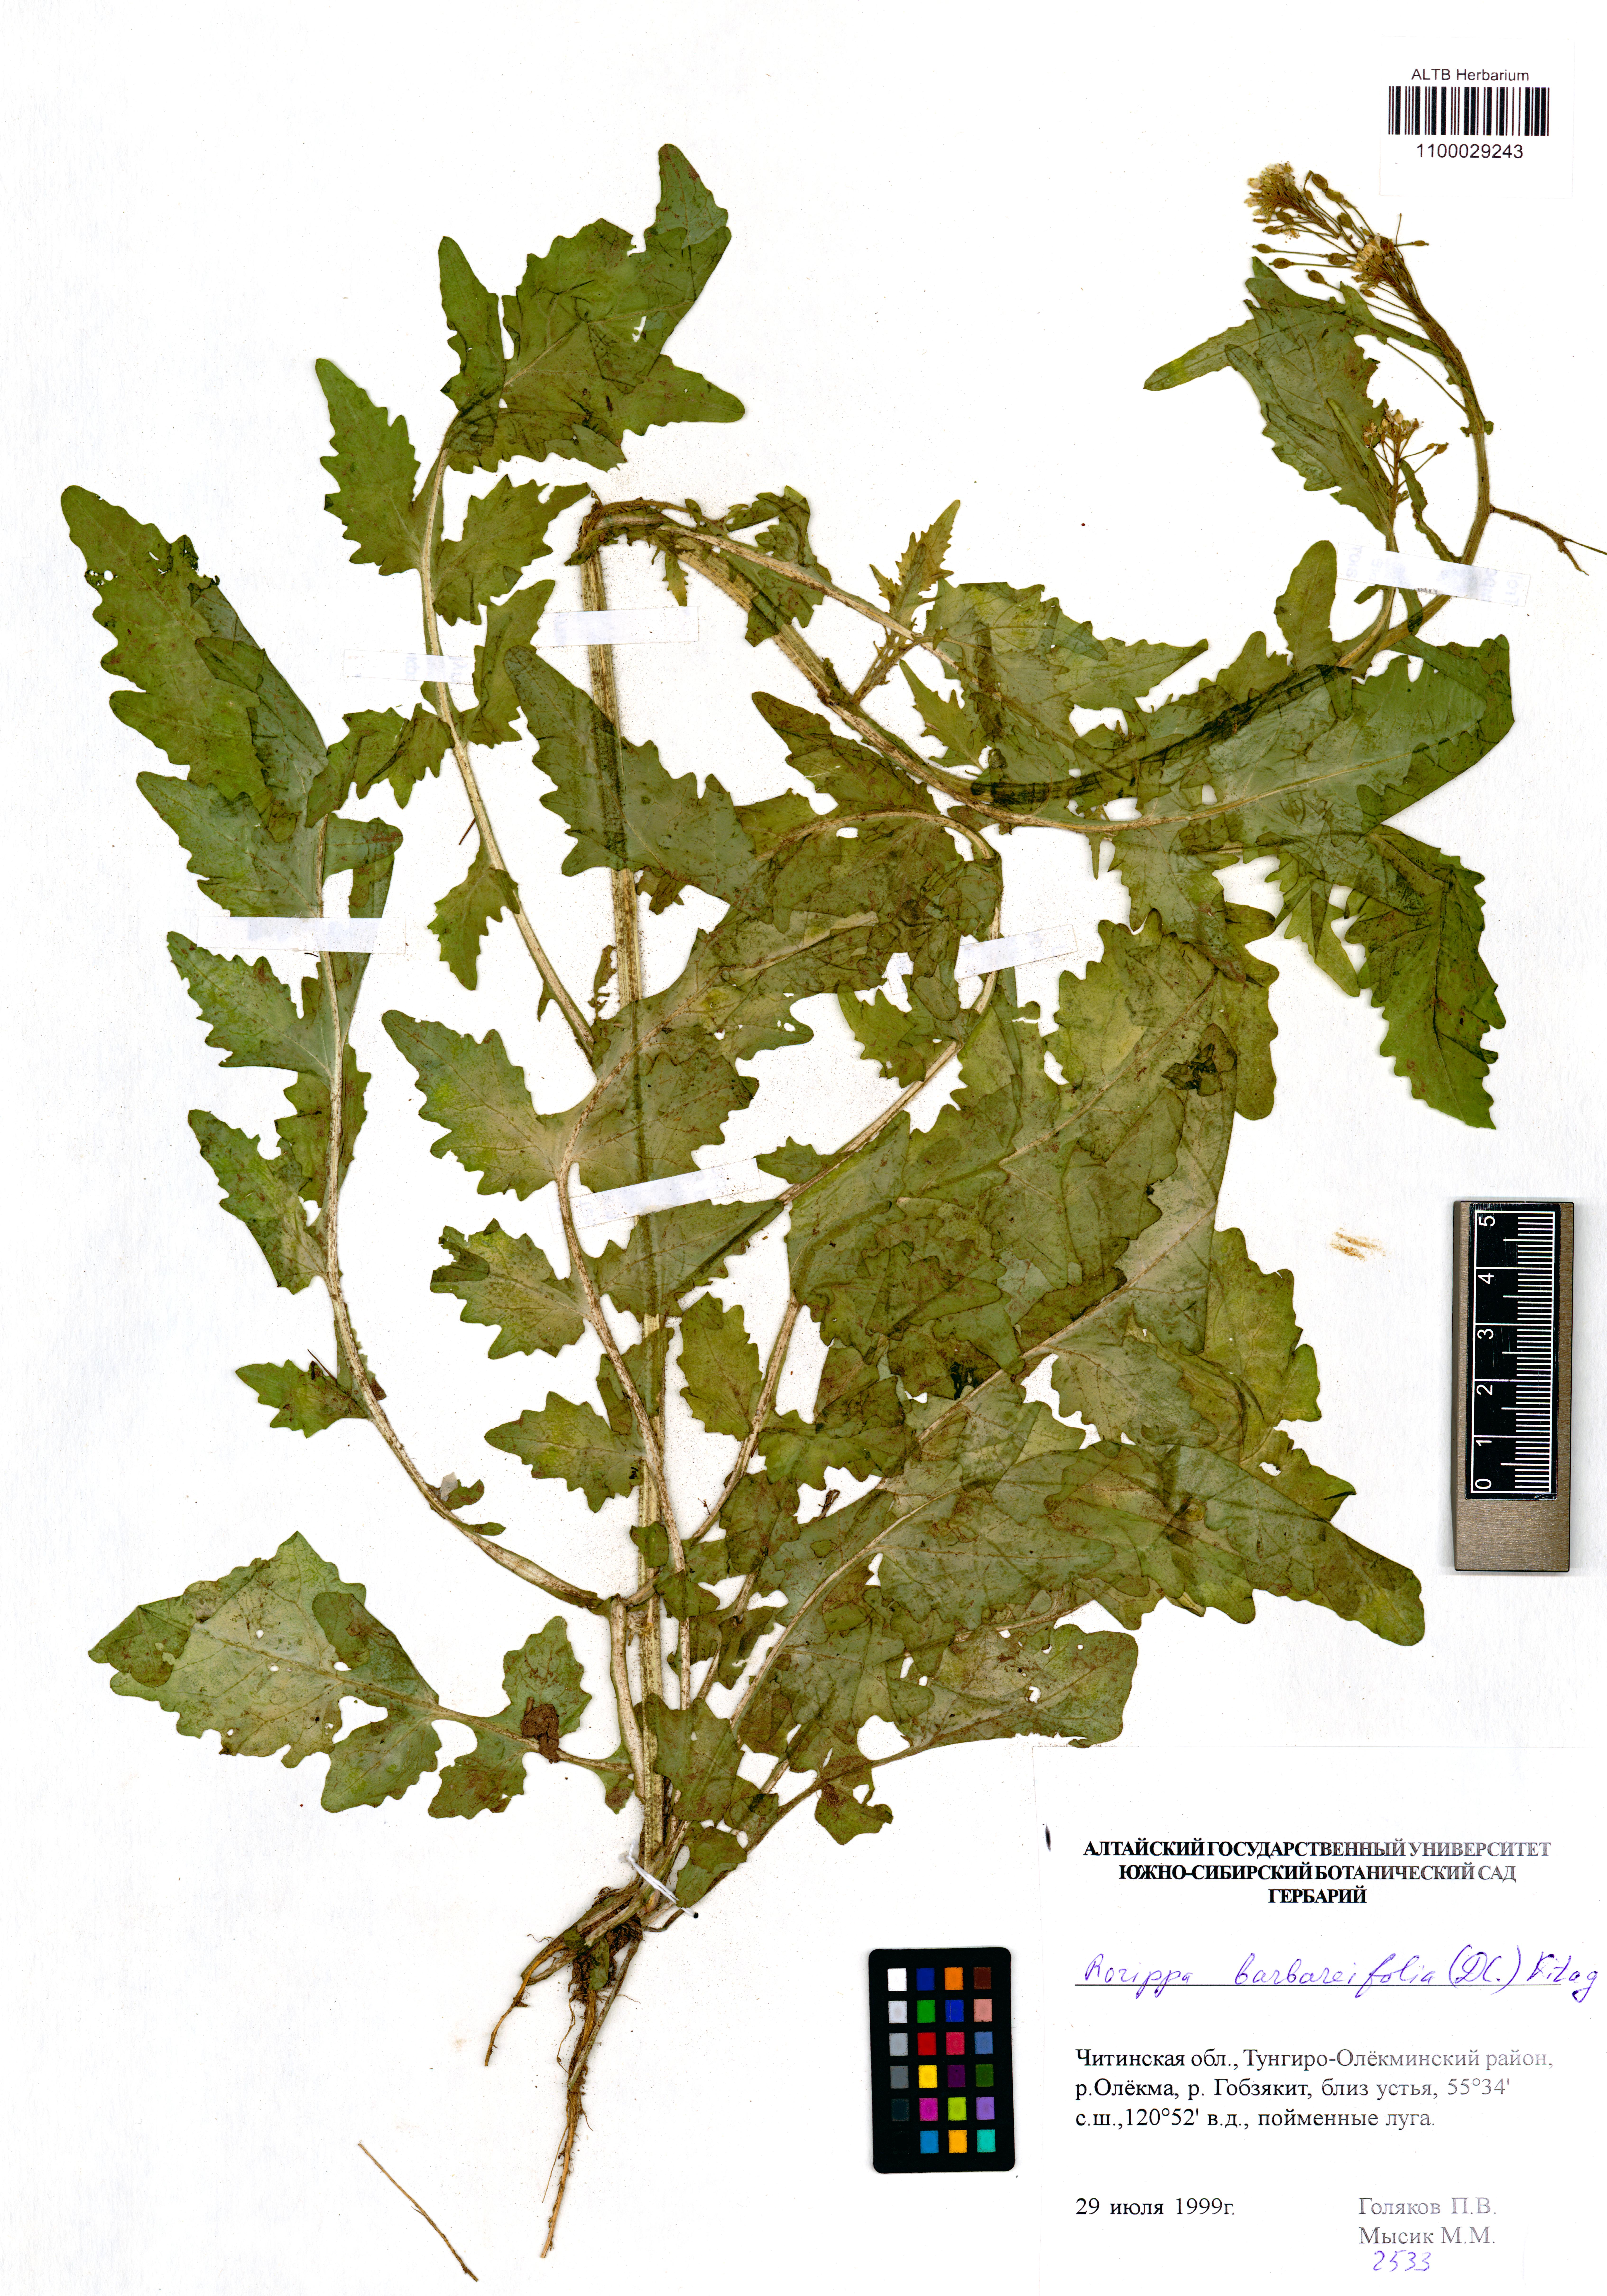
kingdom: Plantae
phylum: Tracheophyta
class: Magnoliopsida
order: Brassicales
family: Brassicaceae
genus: Rorippa
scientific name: Rorippa barbaraefolia
